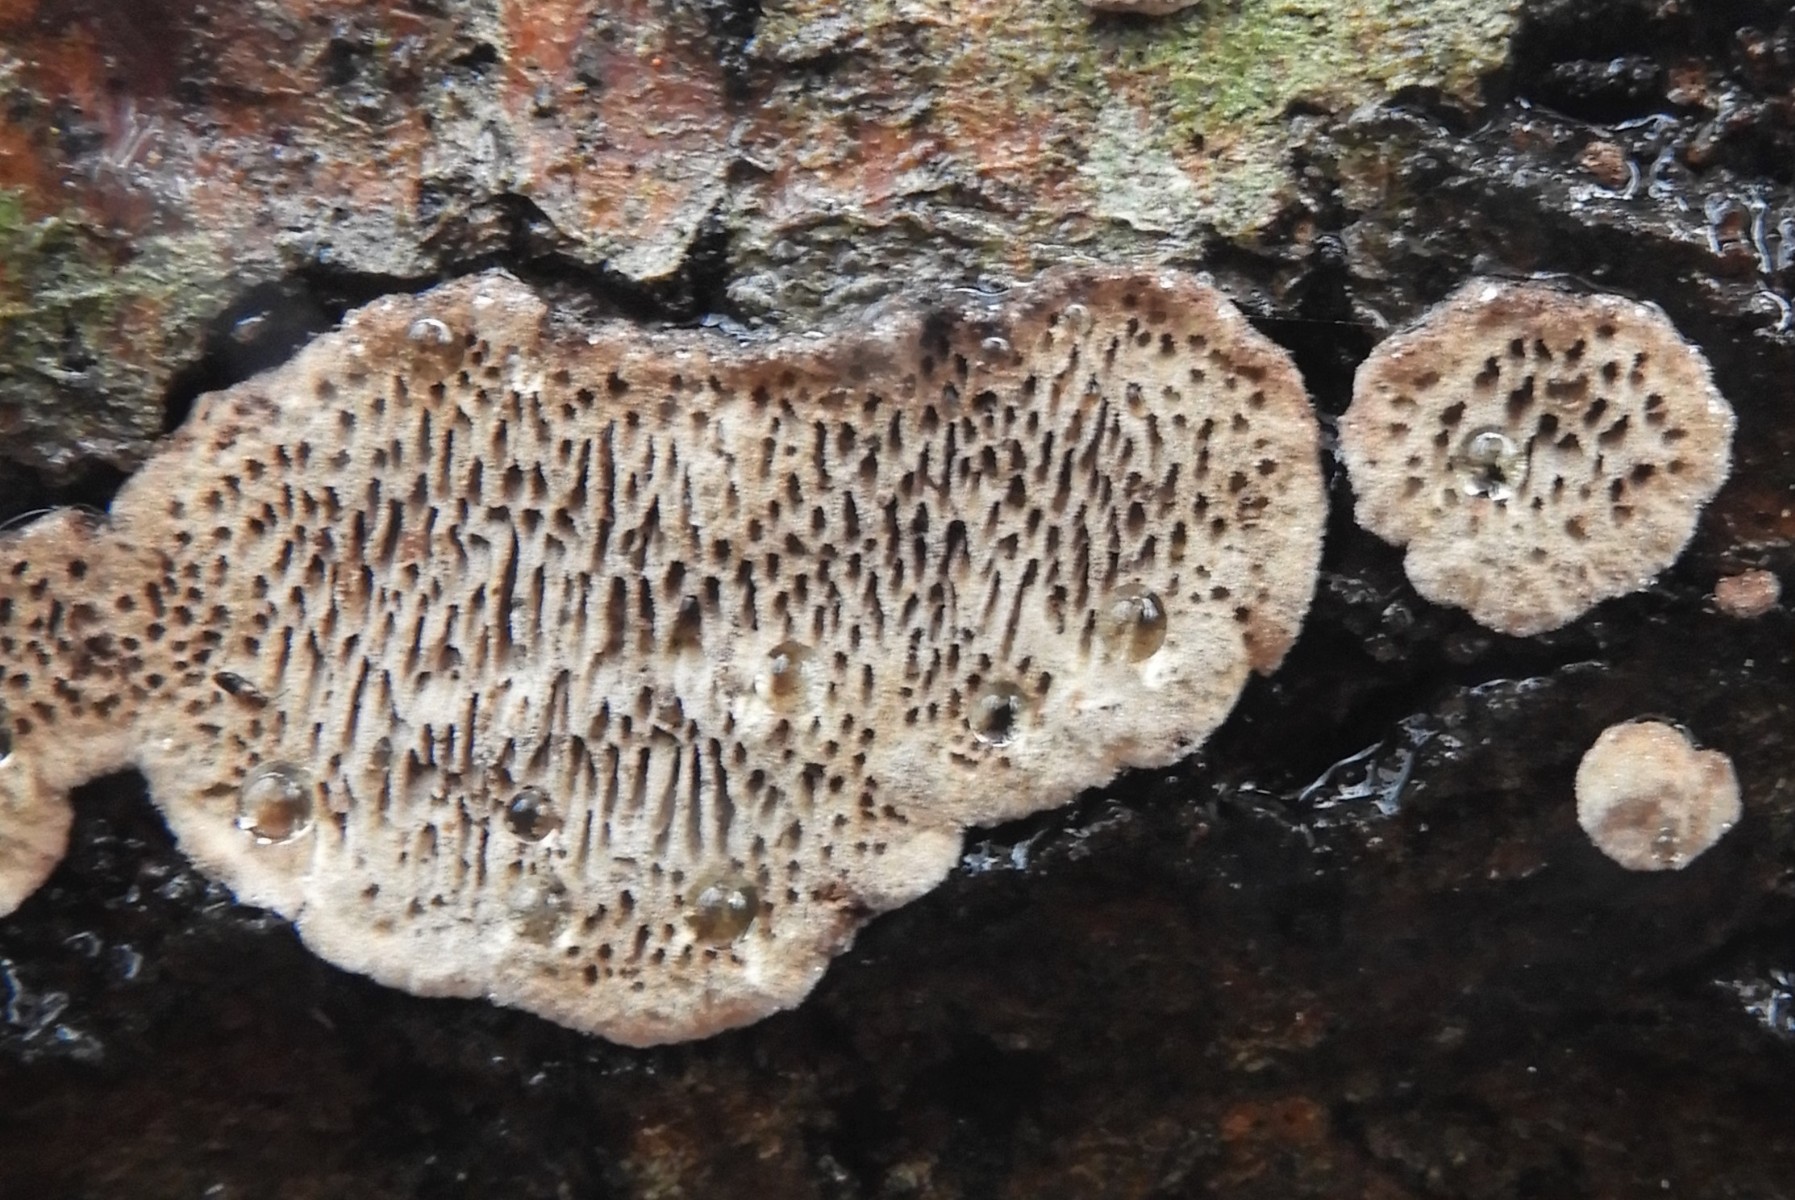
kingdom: Fungi
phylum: Basidiomycota
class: Agaricomycetes
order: Polyporales
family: Polyporaceae
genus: Podofomes
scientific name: Podofomes mollis
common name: blød begporesvamp
